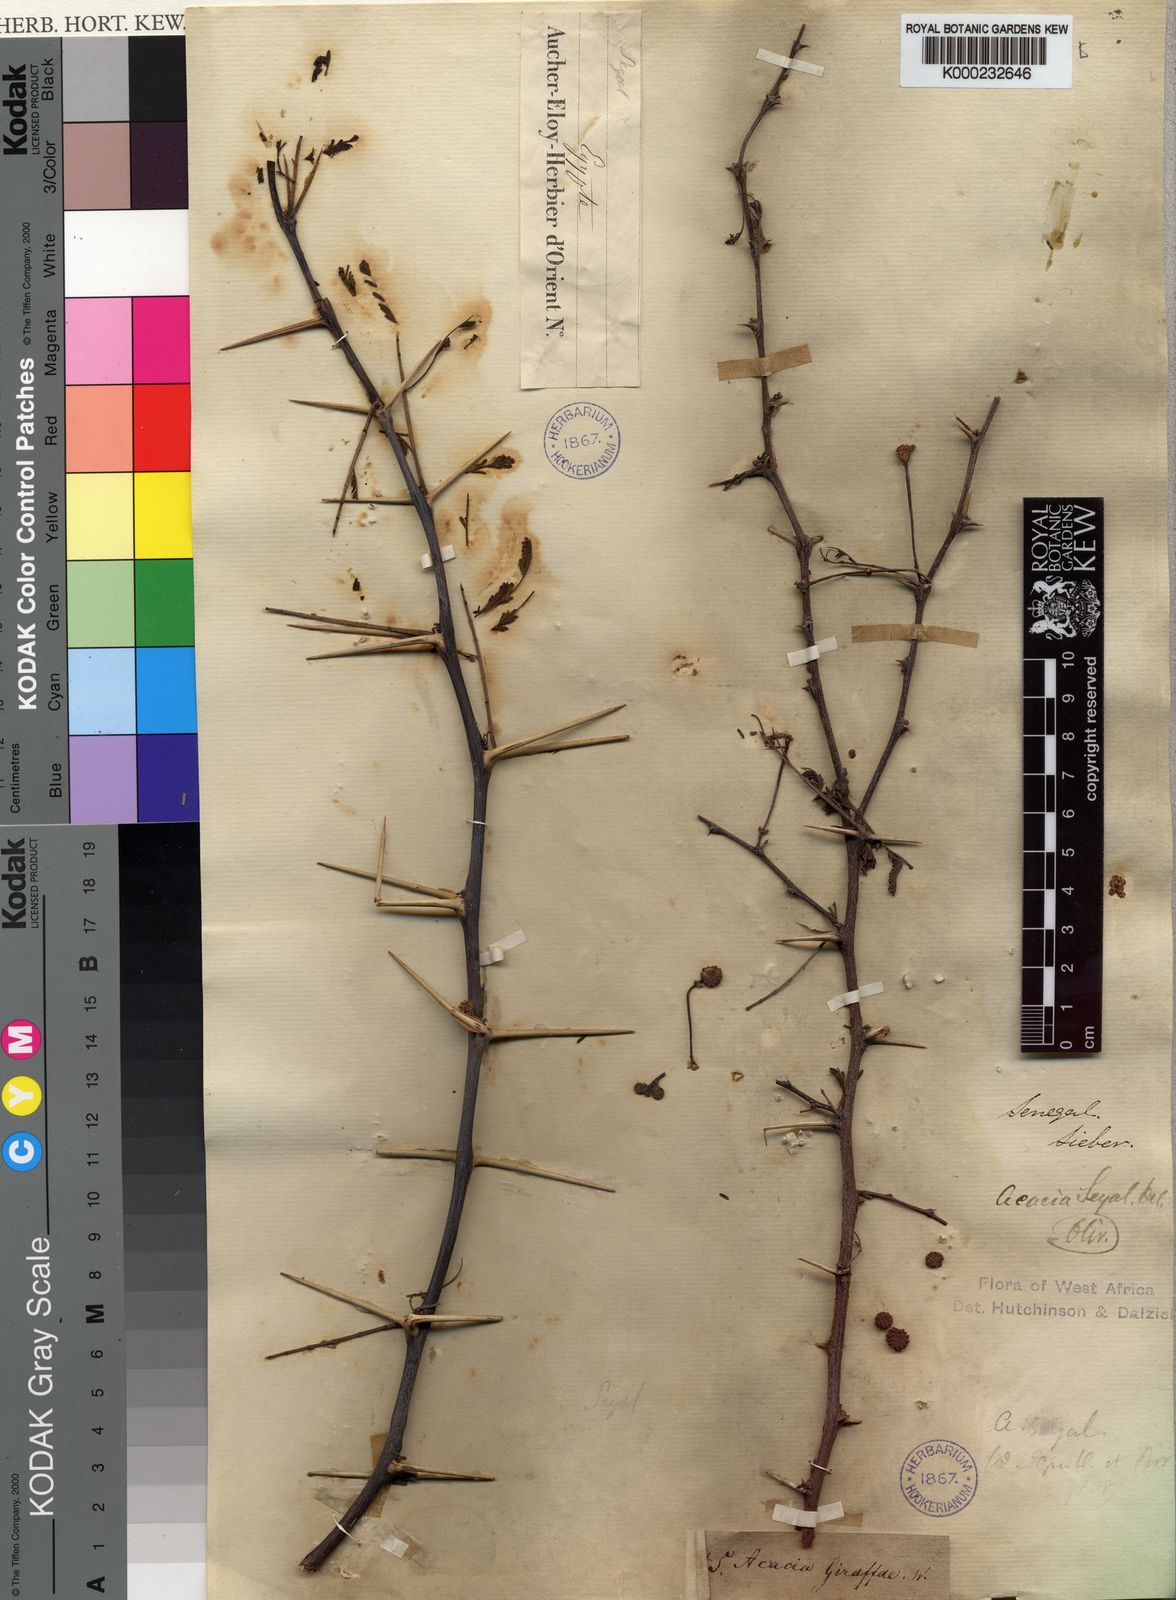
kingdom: Plantae
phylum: Tracheophyta
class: Magnoliopsida
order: Fabales
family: Fabaceae
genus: Faidherbia
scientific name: Faidherbia albida
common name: Anatree
